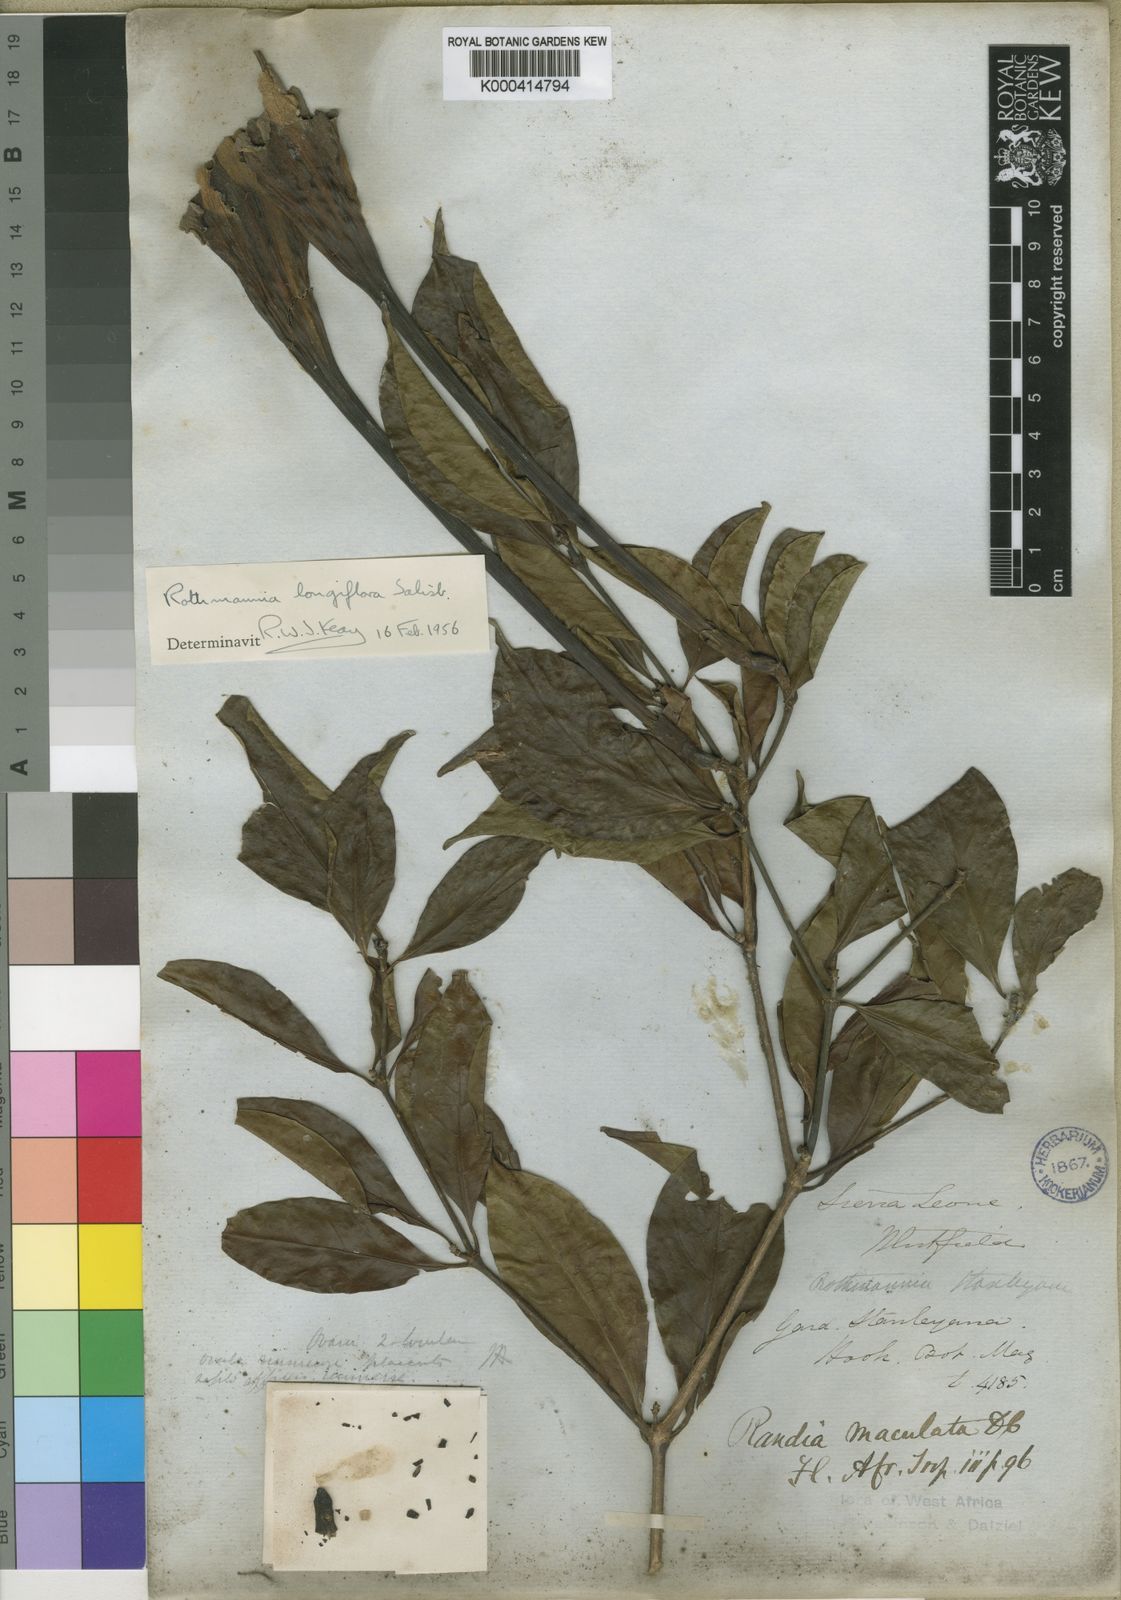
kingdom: Plantae
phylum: Tracheophyta
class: Magnoliopsida
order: Gentianales
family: Rubiaceae
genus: Rothmannia
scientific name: Rothmannia longiflora
